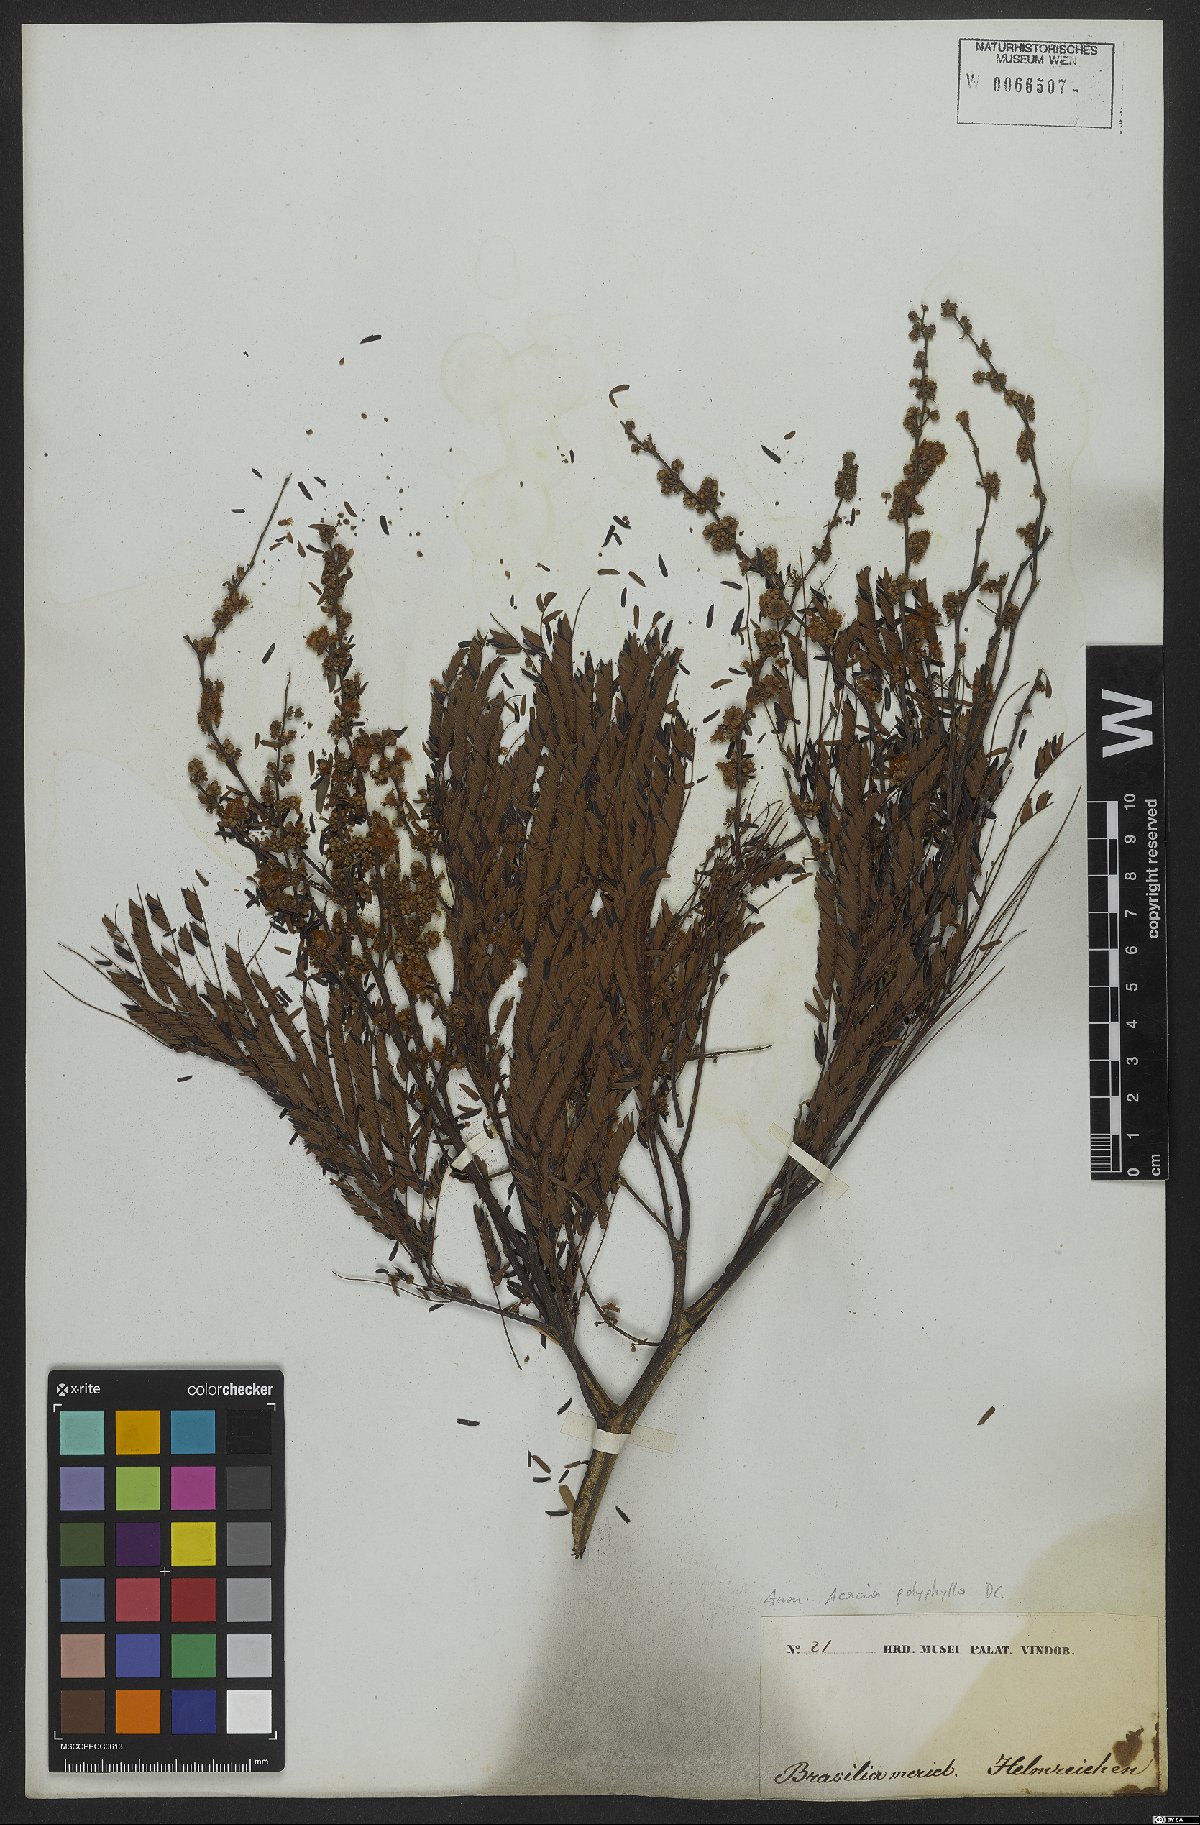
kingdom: Plantae
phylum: Tracheophyta
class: Magnoliopsida
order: Fabales
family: Fabaceae
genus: Senegalia
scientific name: Senegalia polyphylla
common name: White-tamarind
